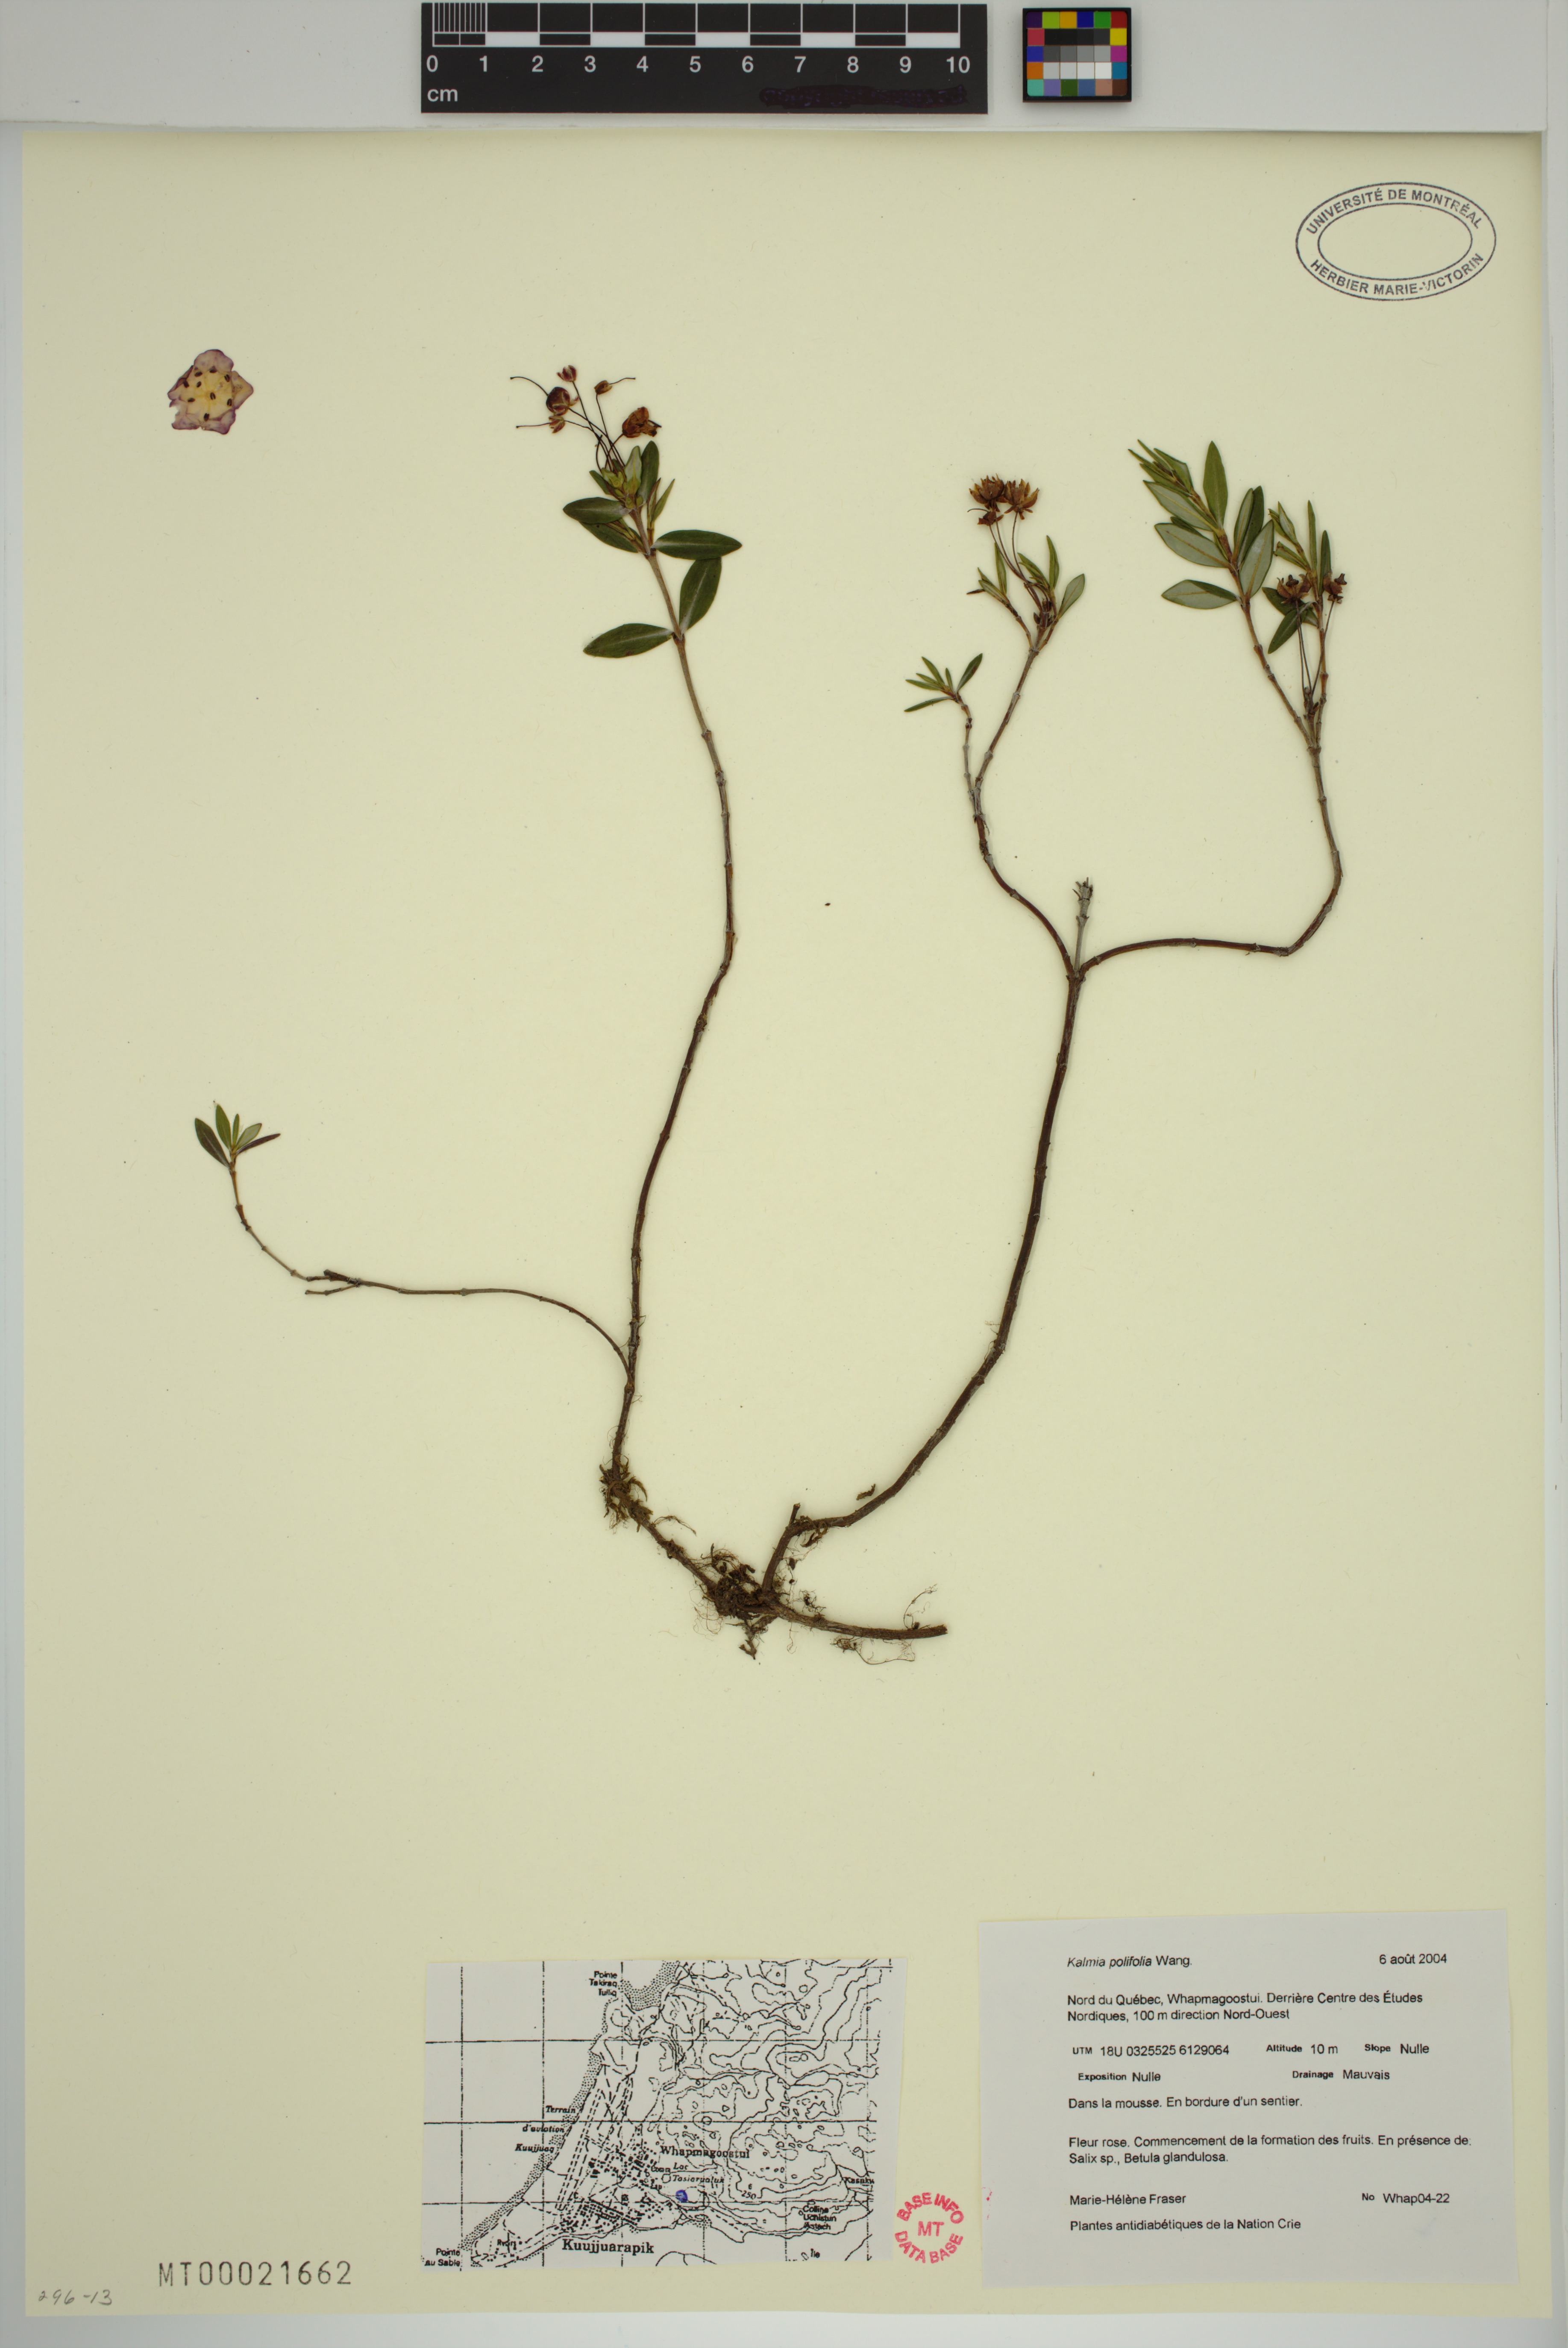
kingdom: Plantae
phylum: Tracheophyta
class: Magnoliopsida
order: Ericales
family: Ericaceae
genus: Kalmia
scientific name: Kalmia polifolia
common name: Bog-laurel
